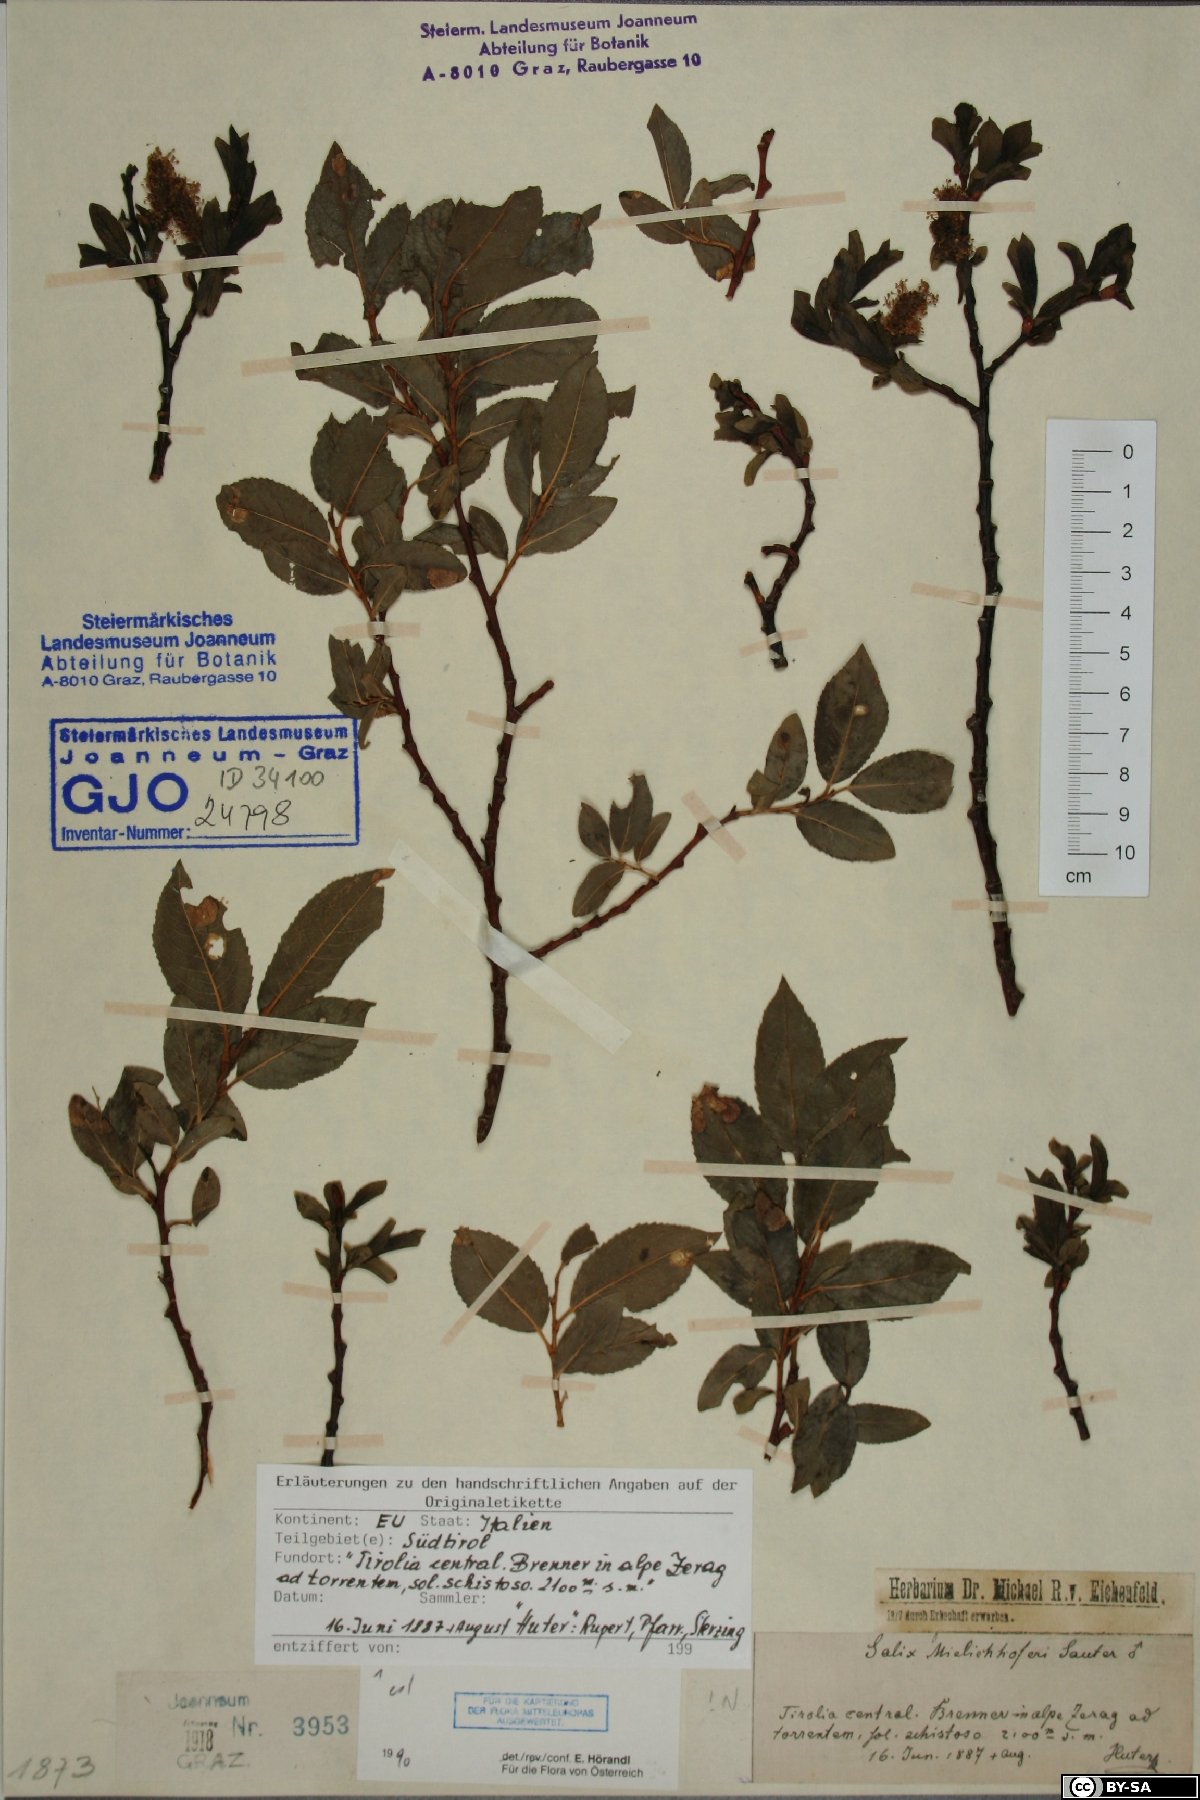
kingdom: Plantae
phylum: Tracheophyta
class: Magnoliopsida
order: Malpighiales
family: Salicaceae
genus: Salix
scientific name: Salix mielichhoferi
